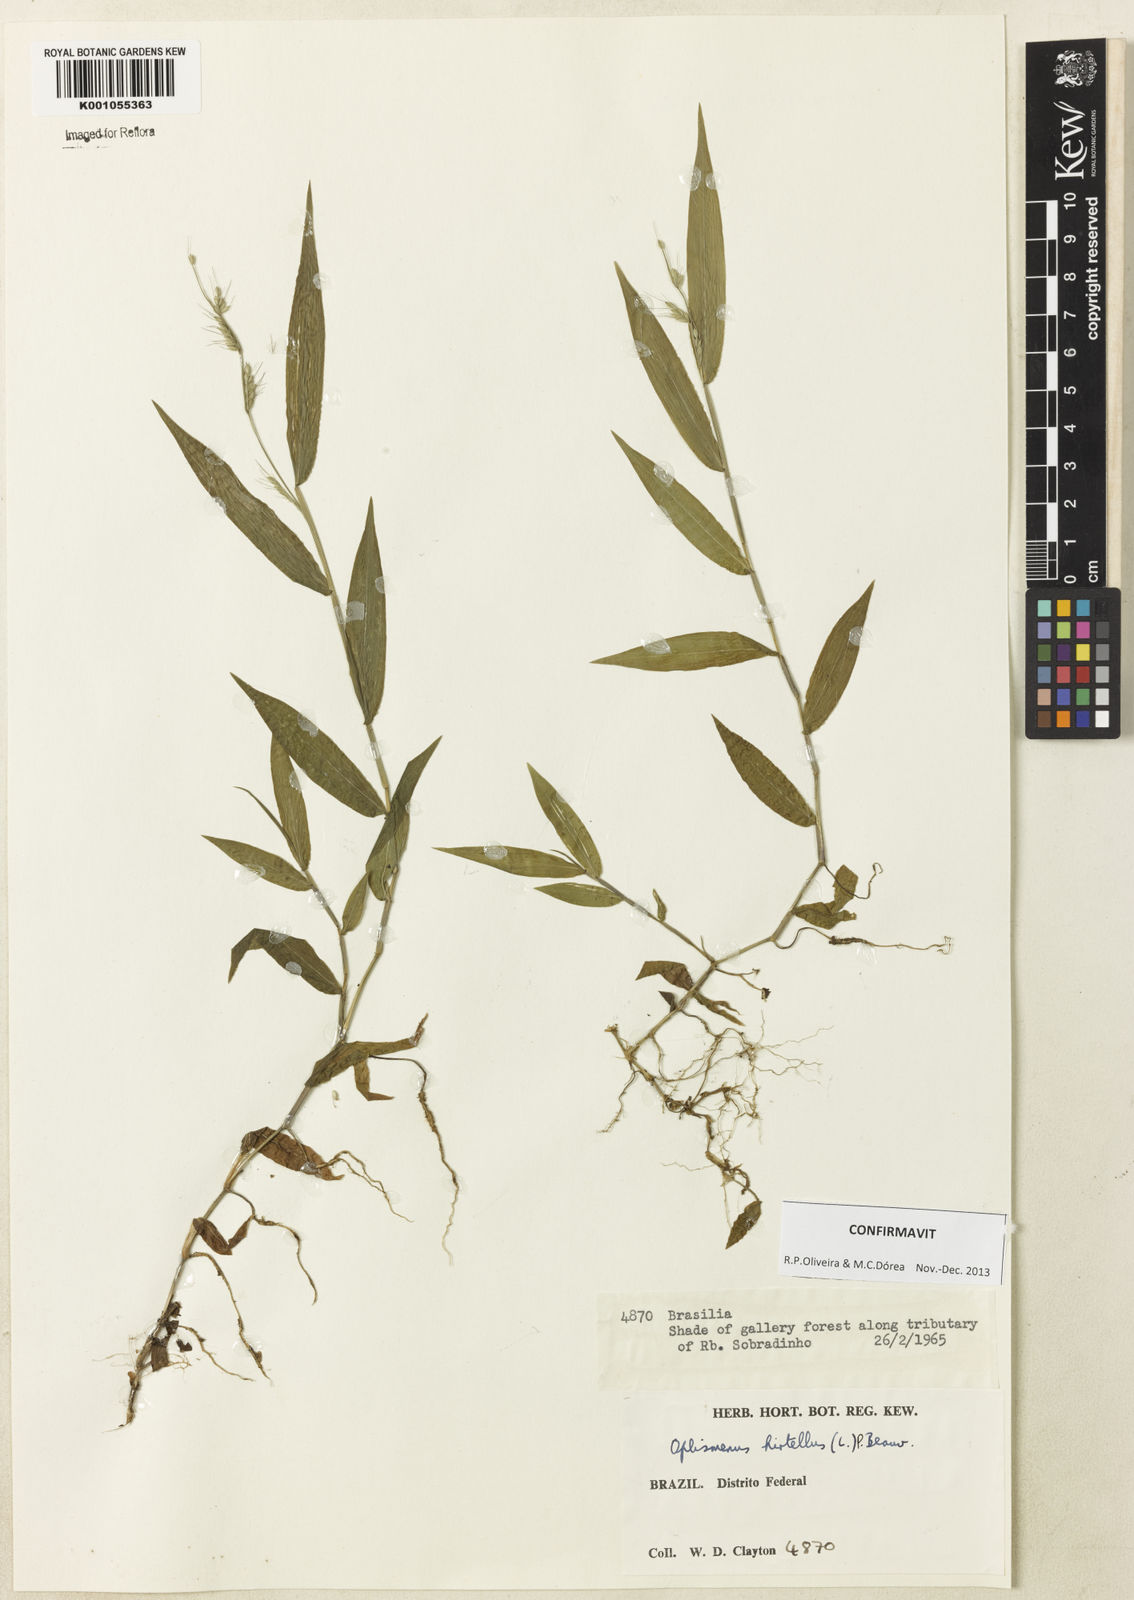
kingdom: Plantae
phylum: Tracheophyta
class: Liliopsida
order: Poales
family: Poaceae
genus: Oplismenus
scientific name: Oplismenus hirtellus
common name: Basketgrass
